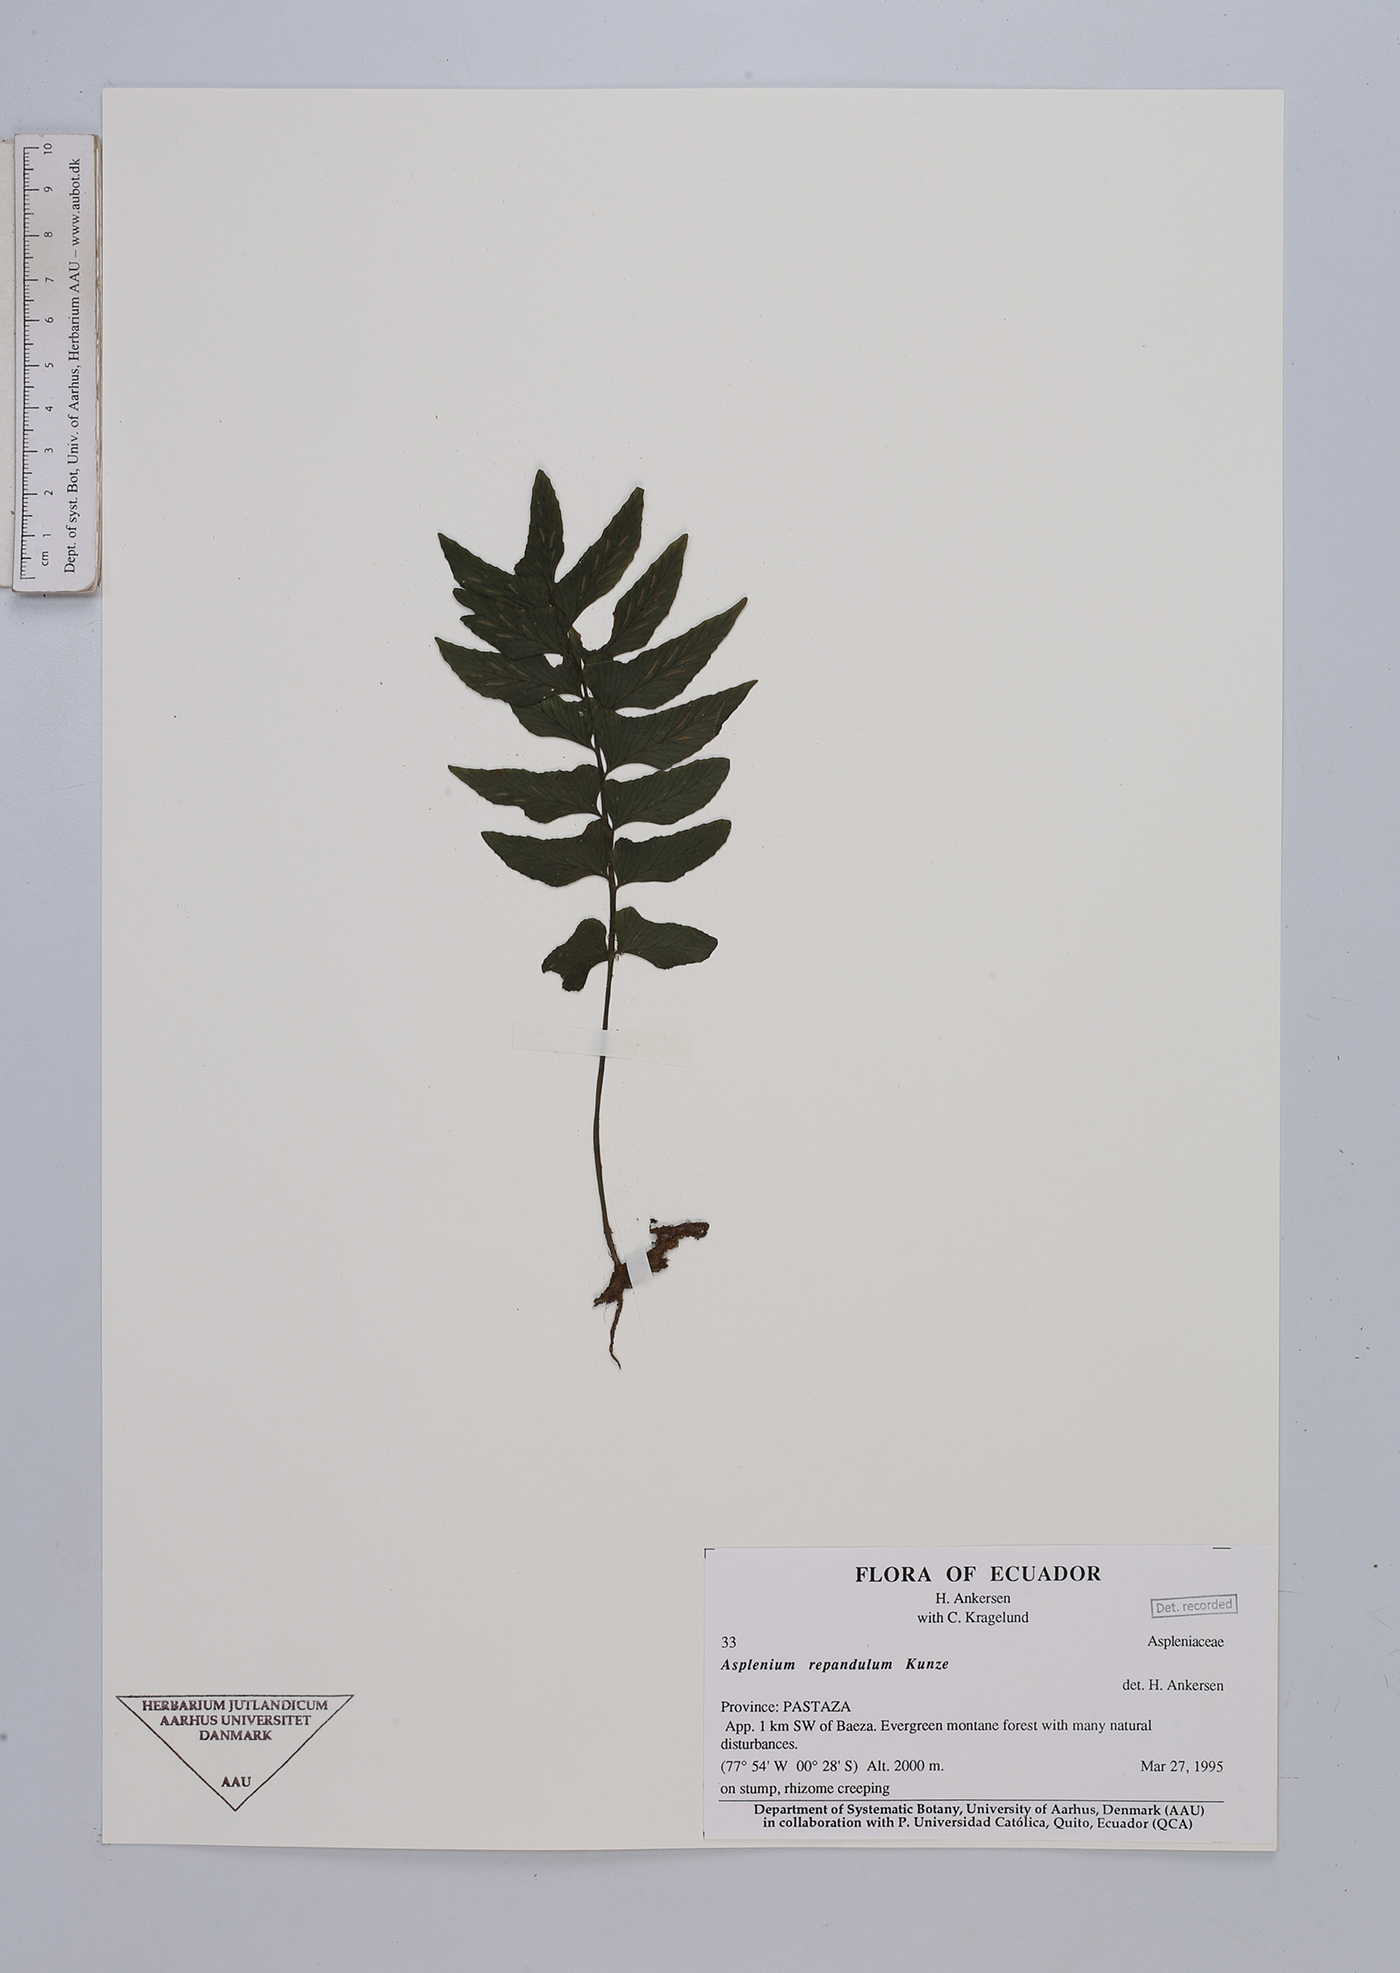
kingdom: Plantae
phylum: Tracheophyta
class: Polypodiopsida
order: Polypodiales
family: Aspleniaceae
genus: Hymenasplenium
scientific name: Hymenasplenium repandulum
